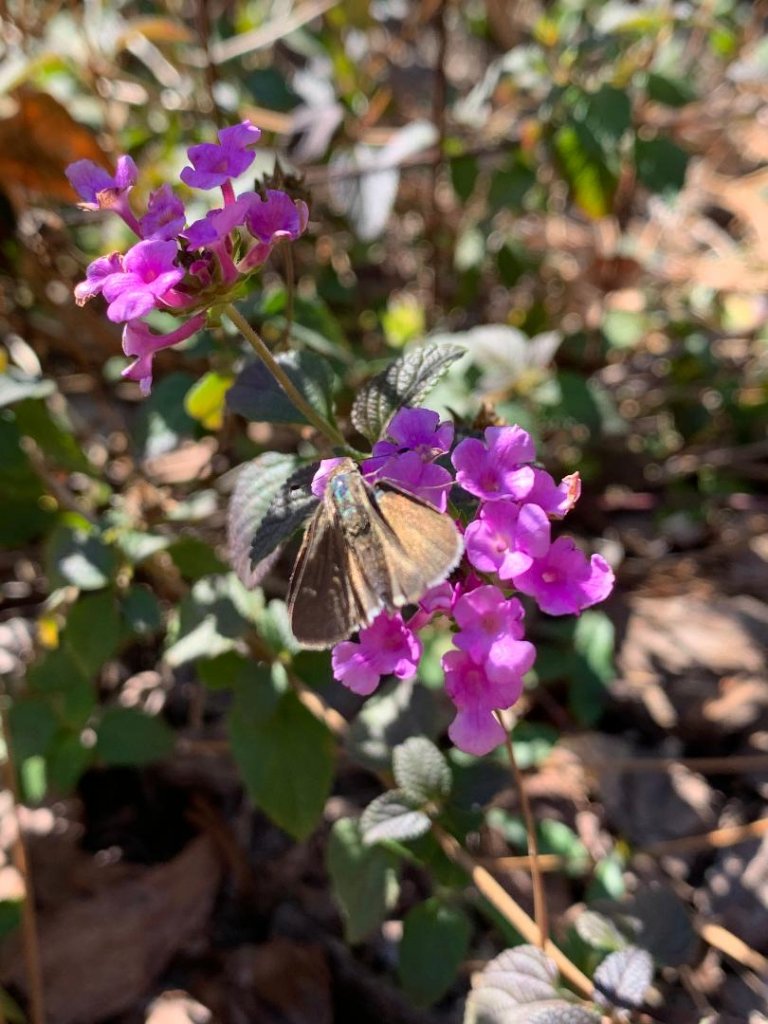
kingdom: Animalia
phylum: Arthropoda
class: Insecta
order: Lepidoptera
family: Hesperiidae
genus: Lerodea
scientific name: Lerodea eufala
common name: Eufala Skipper
